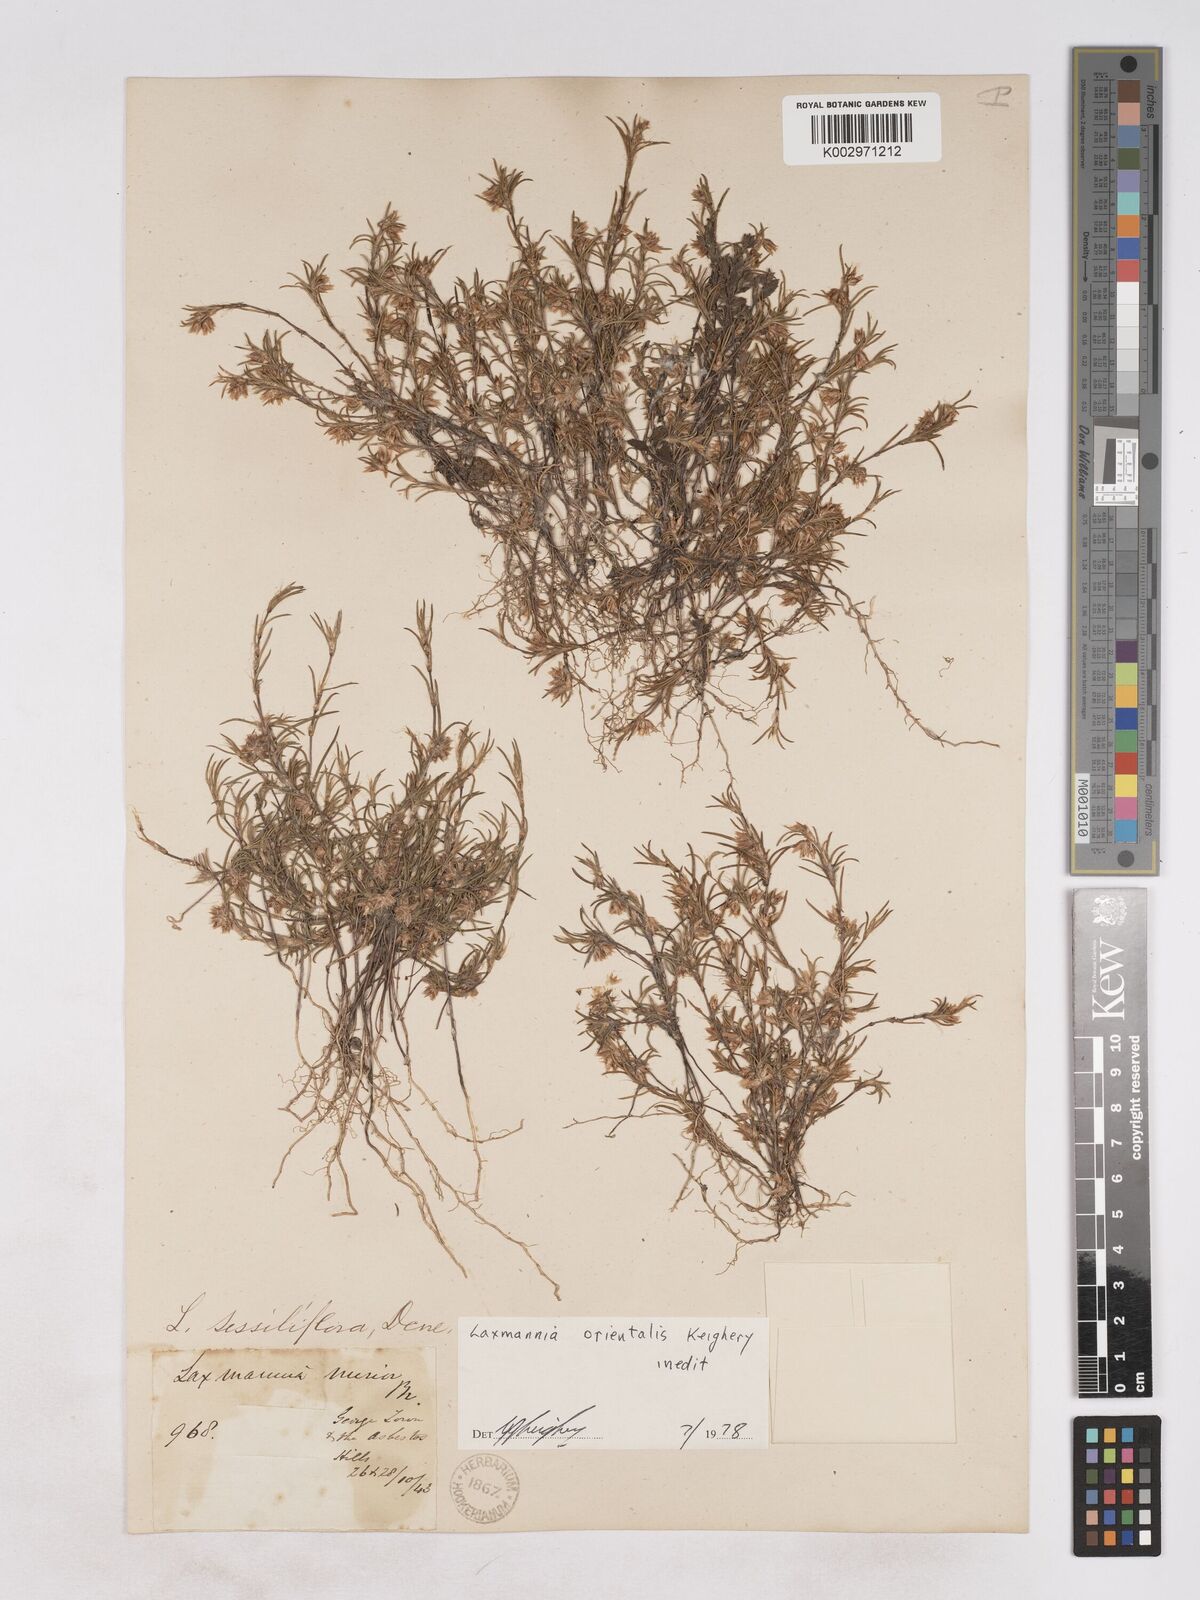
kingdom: Plantae
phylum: Tracheophyta
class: Liliopsida
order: Asparagales
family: Asparagaceae
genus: Laxmannia
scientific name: Laxmannia orientalis
